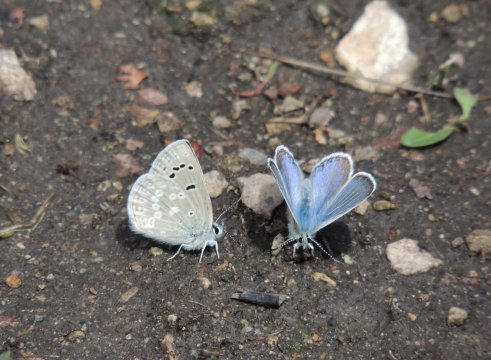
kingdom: Animalia
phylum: Arthropoda
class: Insecta
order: Lepidoptera
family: Lycaenidae
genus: Icaricia
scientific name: Icaricia icarioides
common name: Boisduval's Blue
